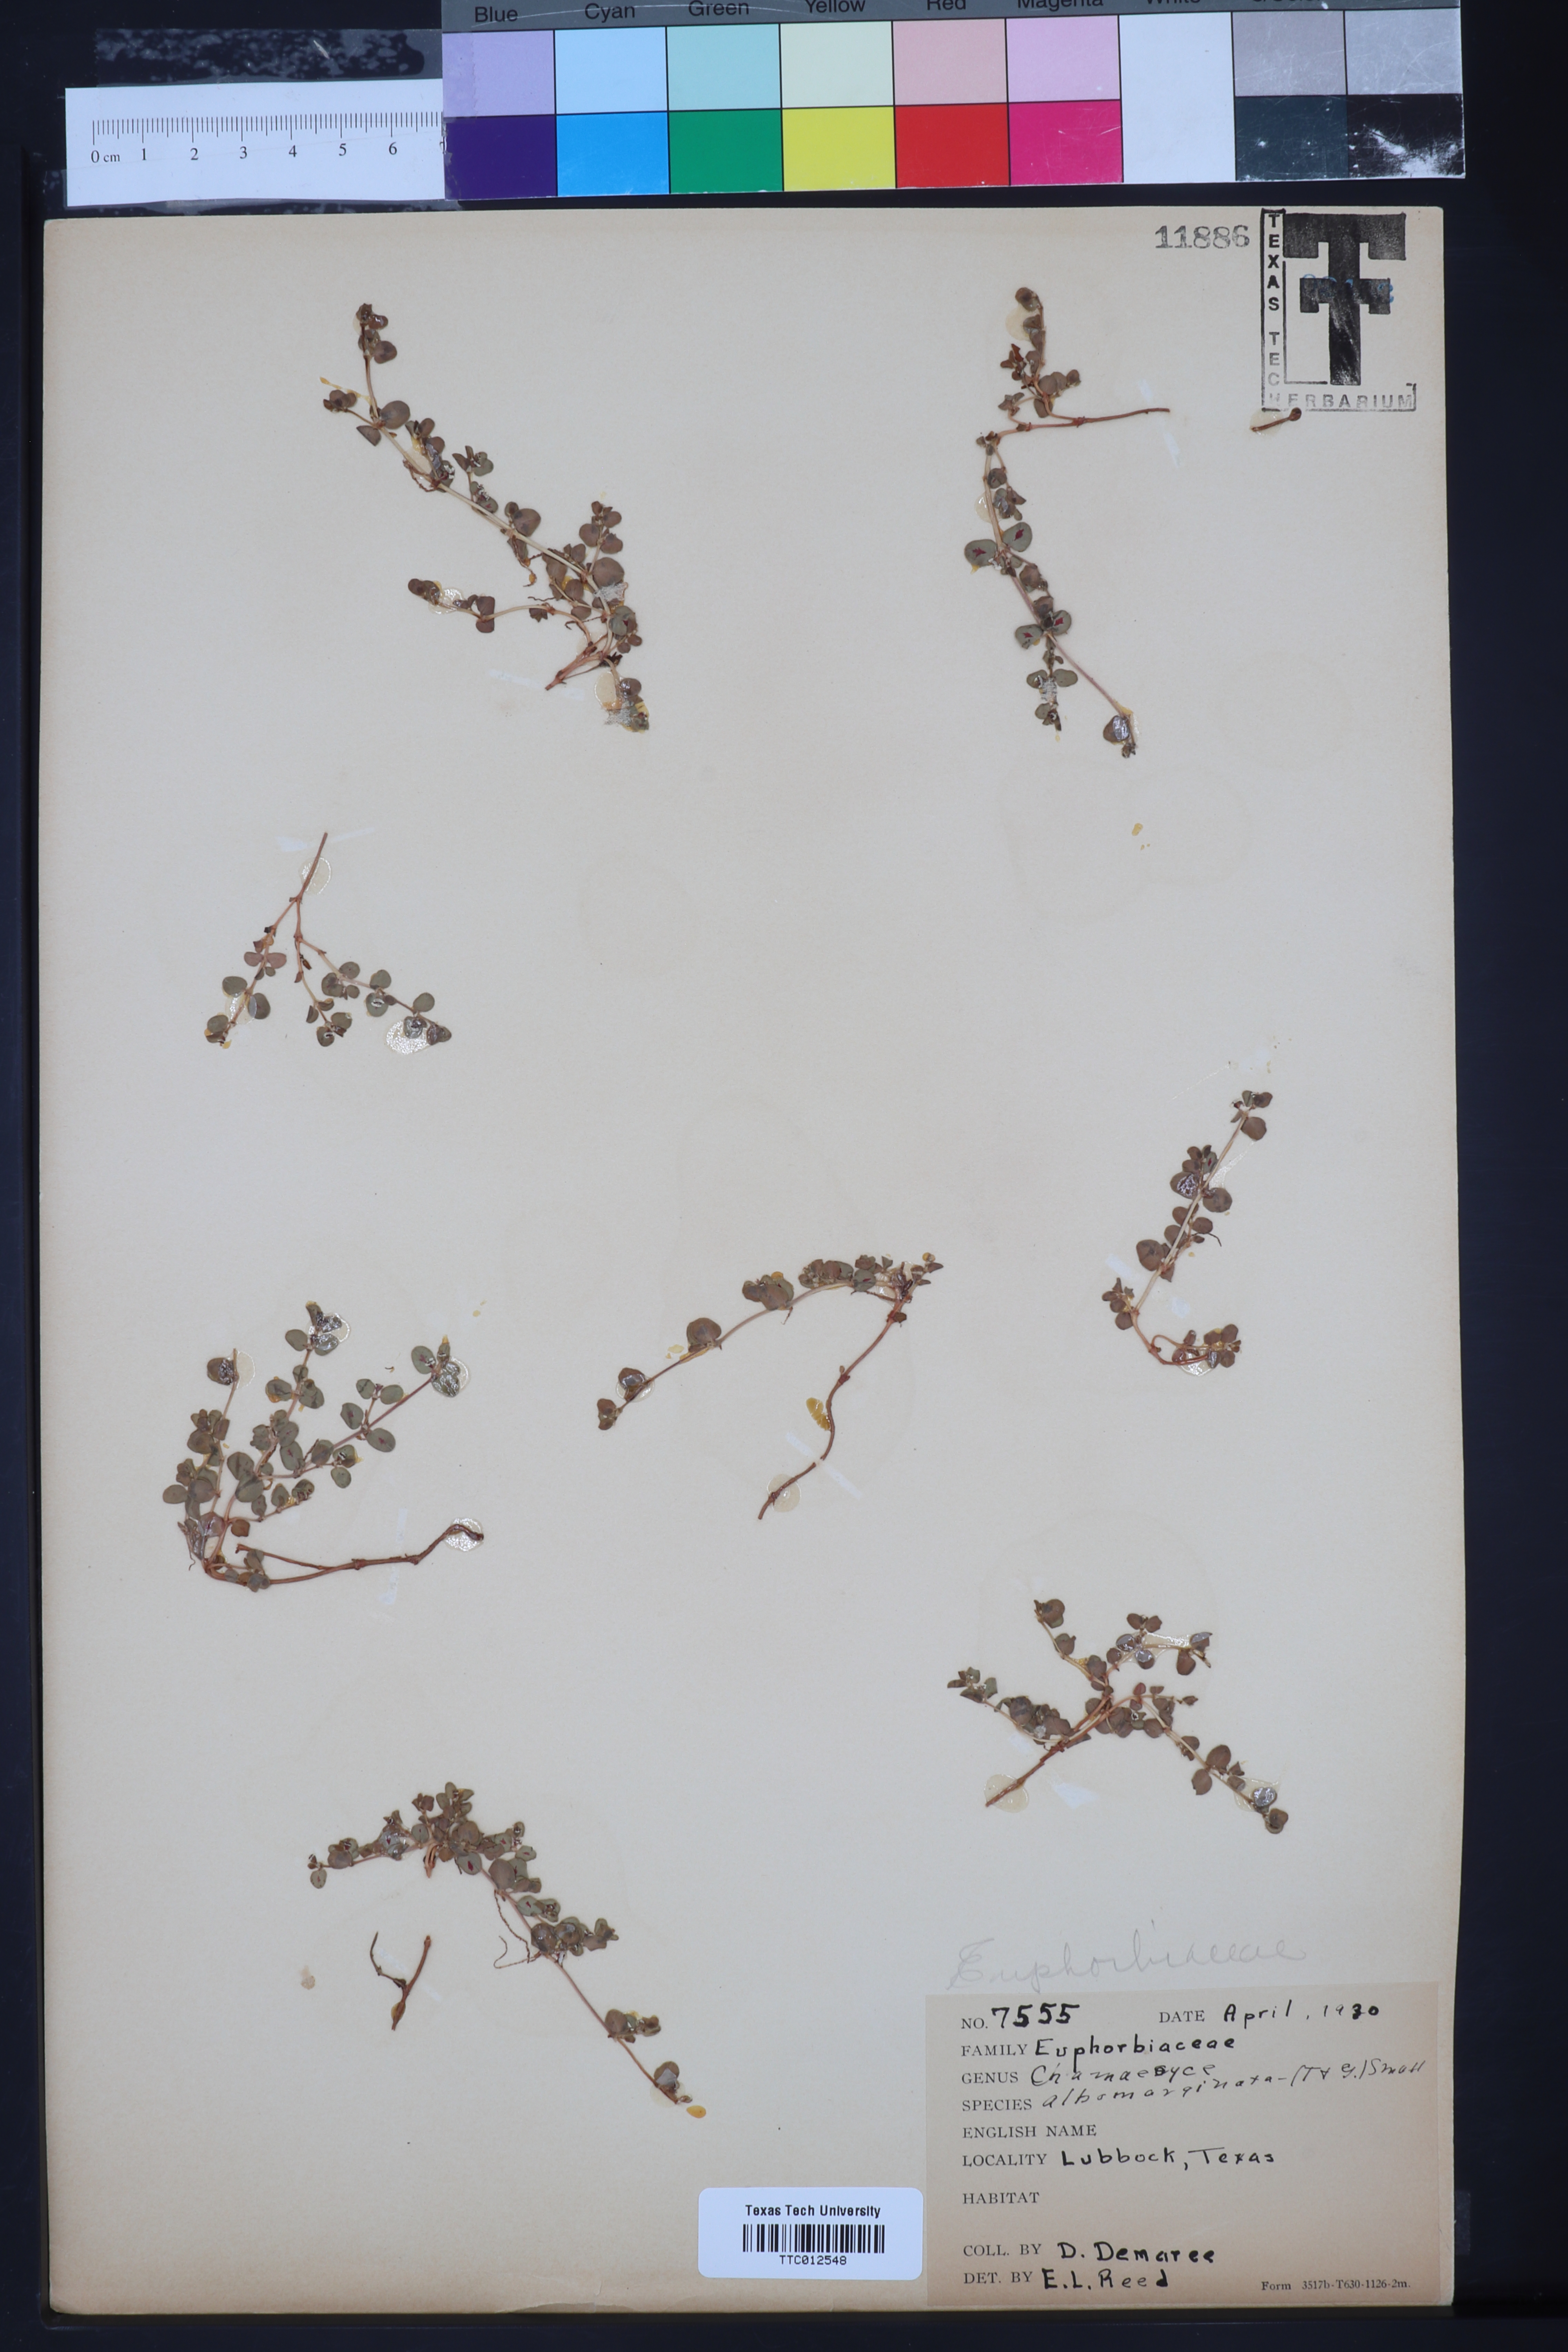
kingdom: Plantae
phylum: Tracheophyta
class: Magnoliopsida
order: Malpighiales
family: Euphorbiaceae
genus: Euphorbia
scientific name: Euphorbia albomarginata
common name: Whitemargin sandmat
